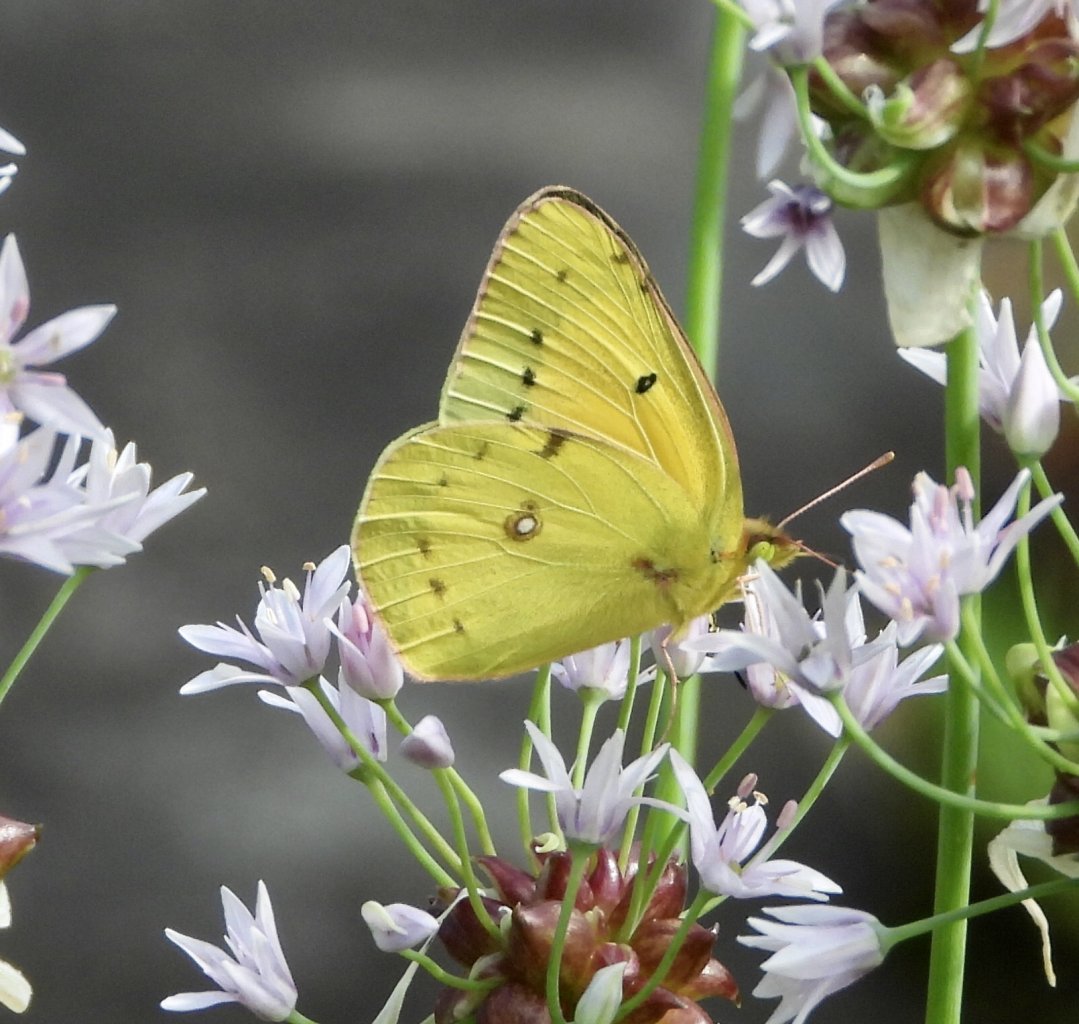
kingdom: Animalia
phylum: Arthropoda
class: Insecta
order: Lepidoptera
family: Pieridae
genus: Colias
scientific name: Colias eurytheme
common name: Orange Sulphur
